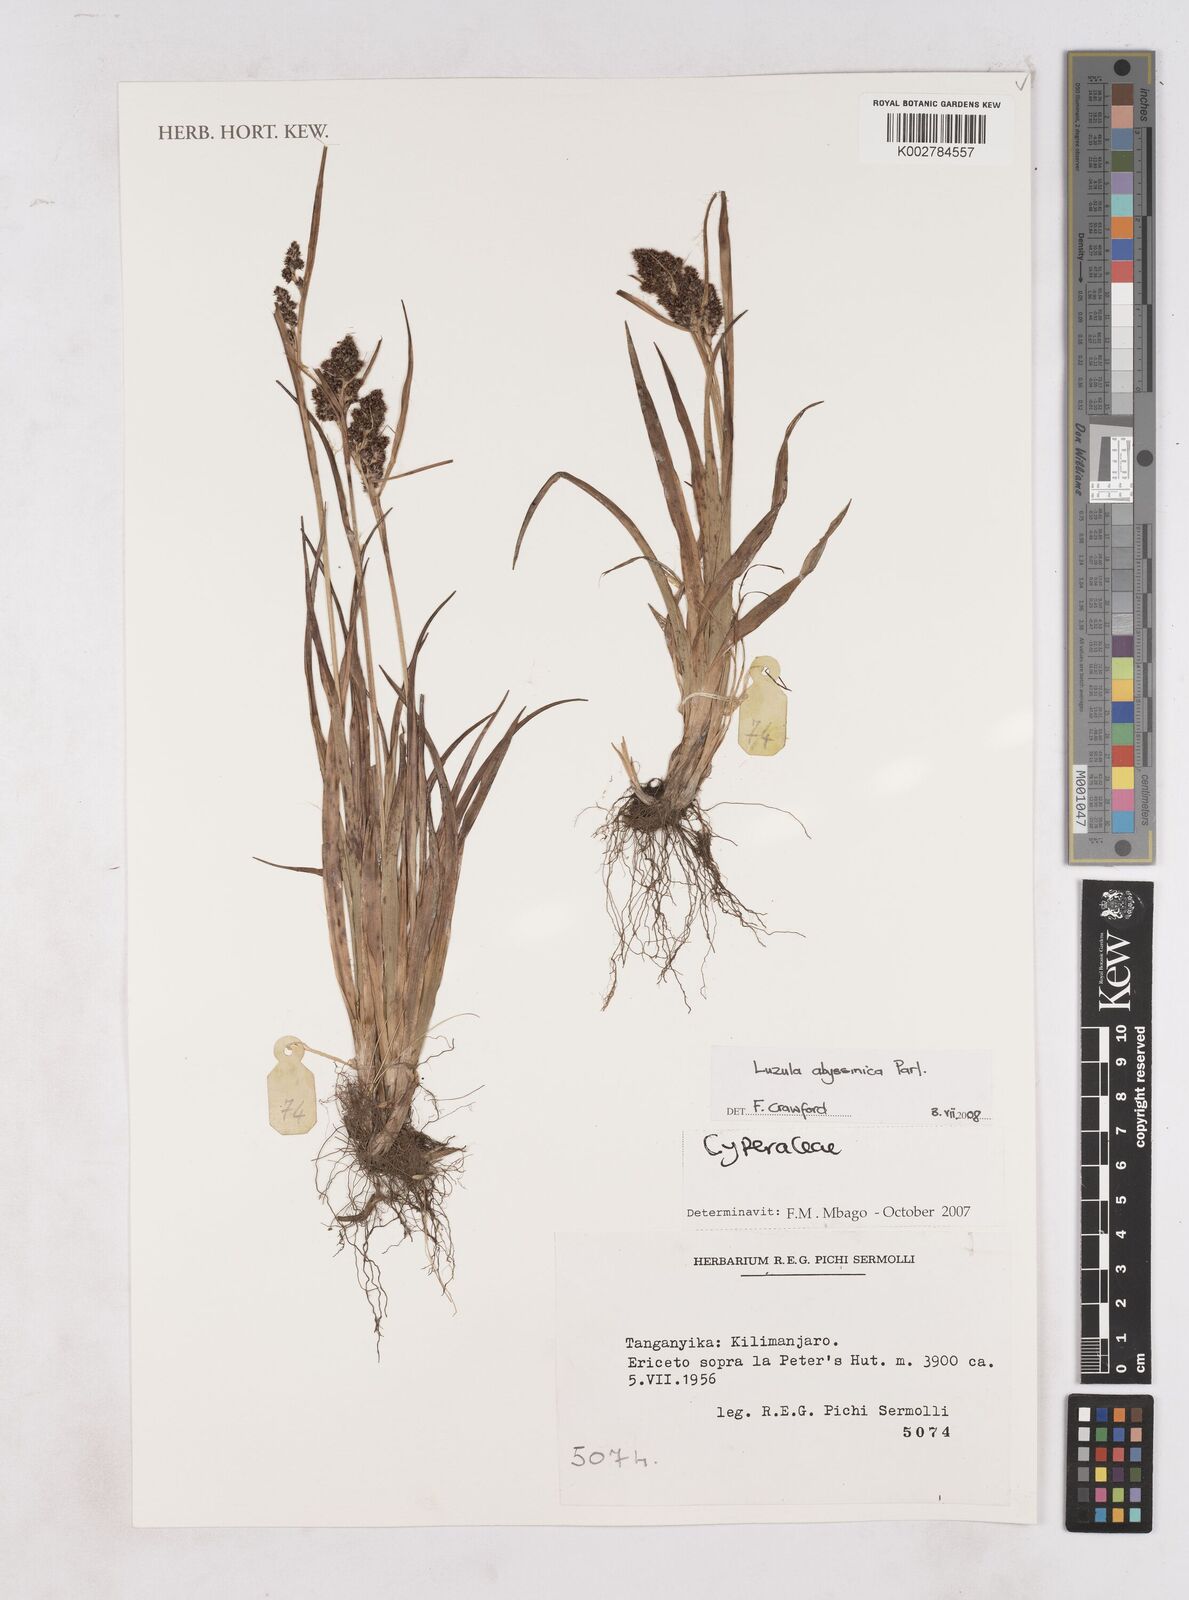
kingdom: Plantae
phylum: Tracheophyta
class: Liliopsida
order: Poales
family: Juncaceae
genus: Luzula
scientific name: Luzula abyssinica
